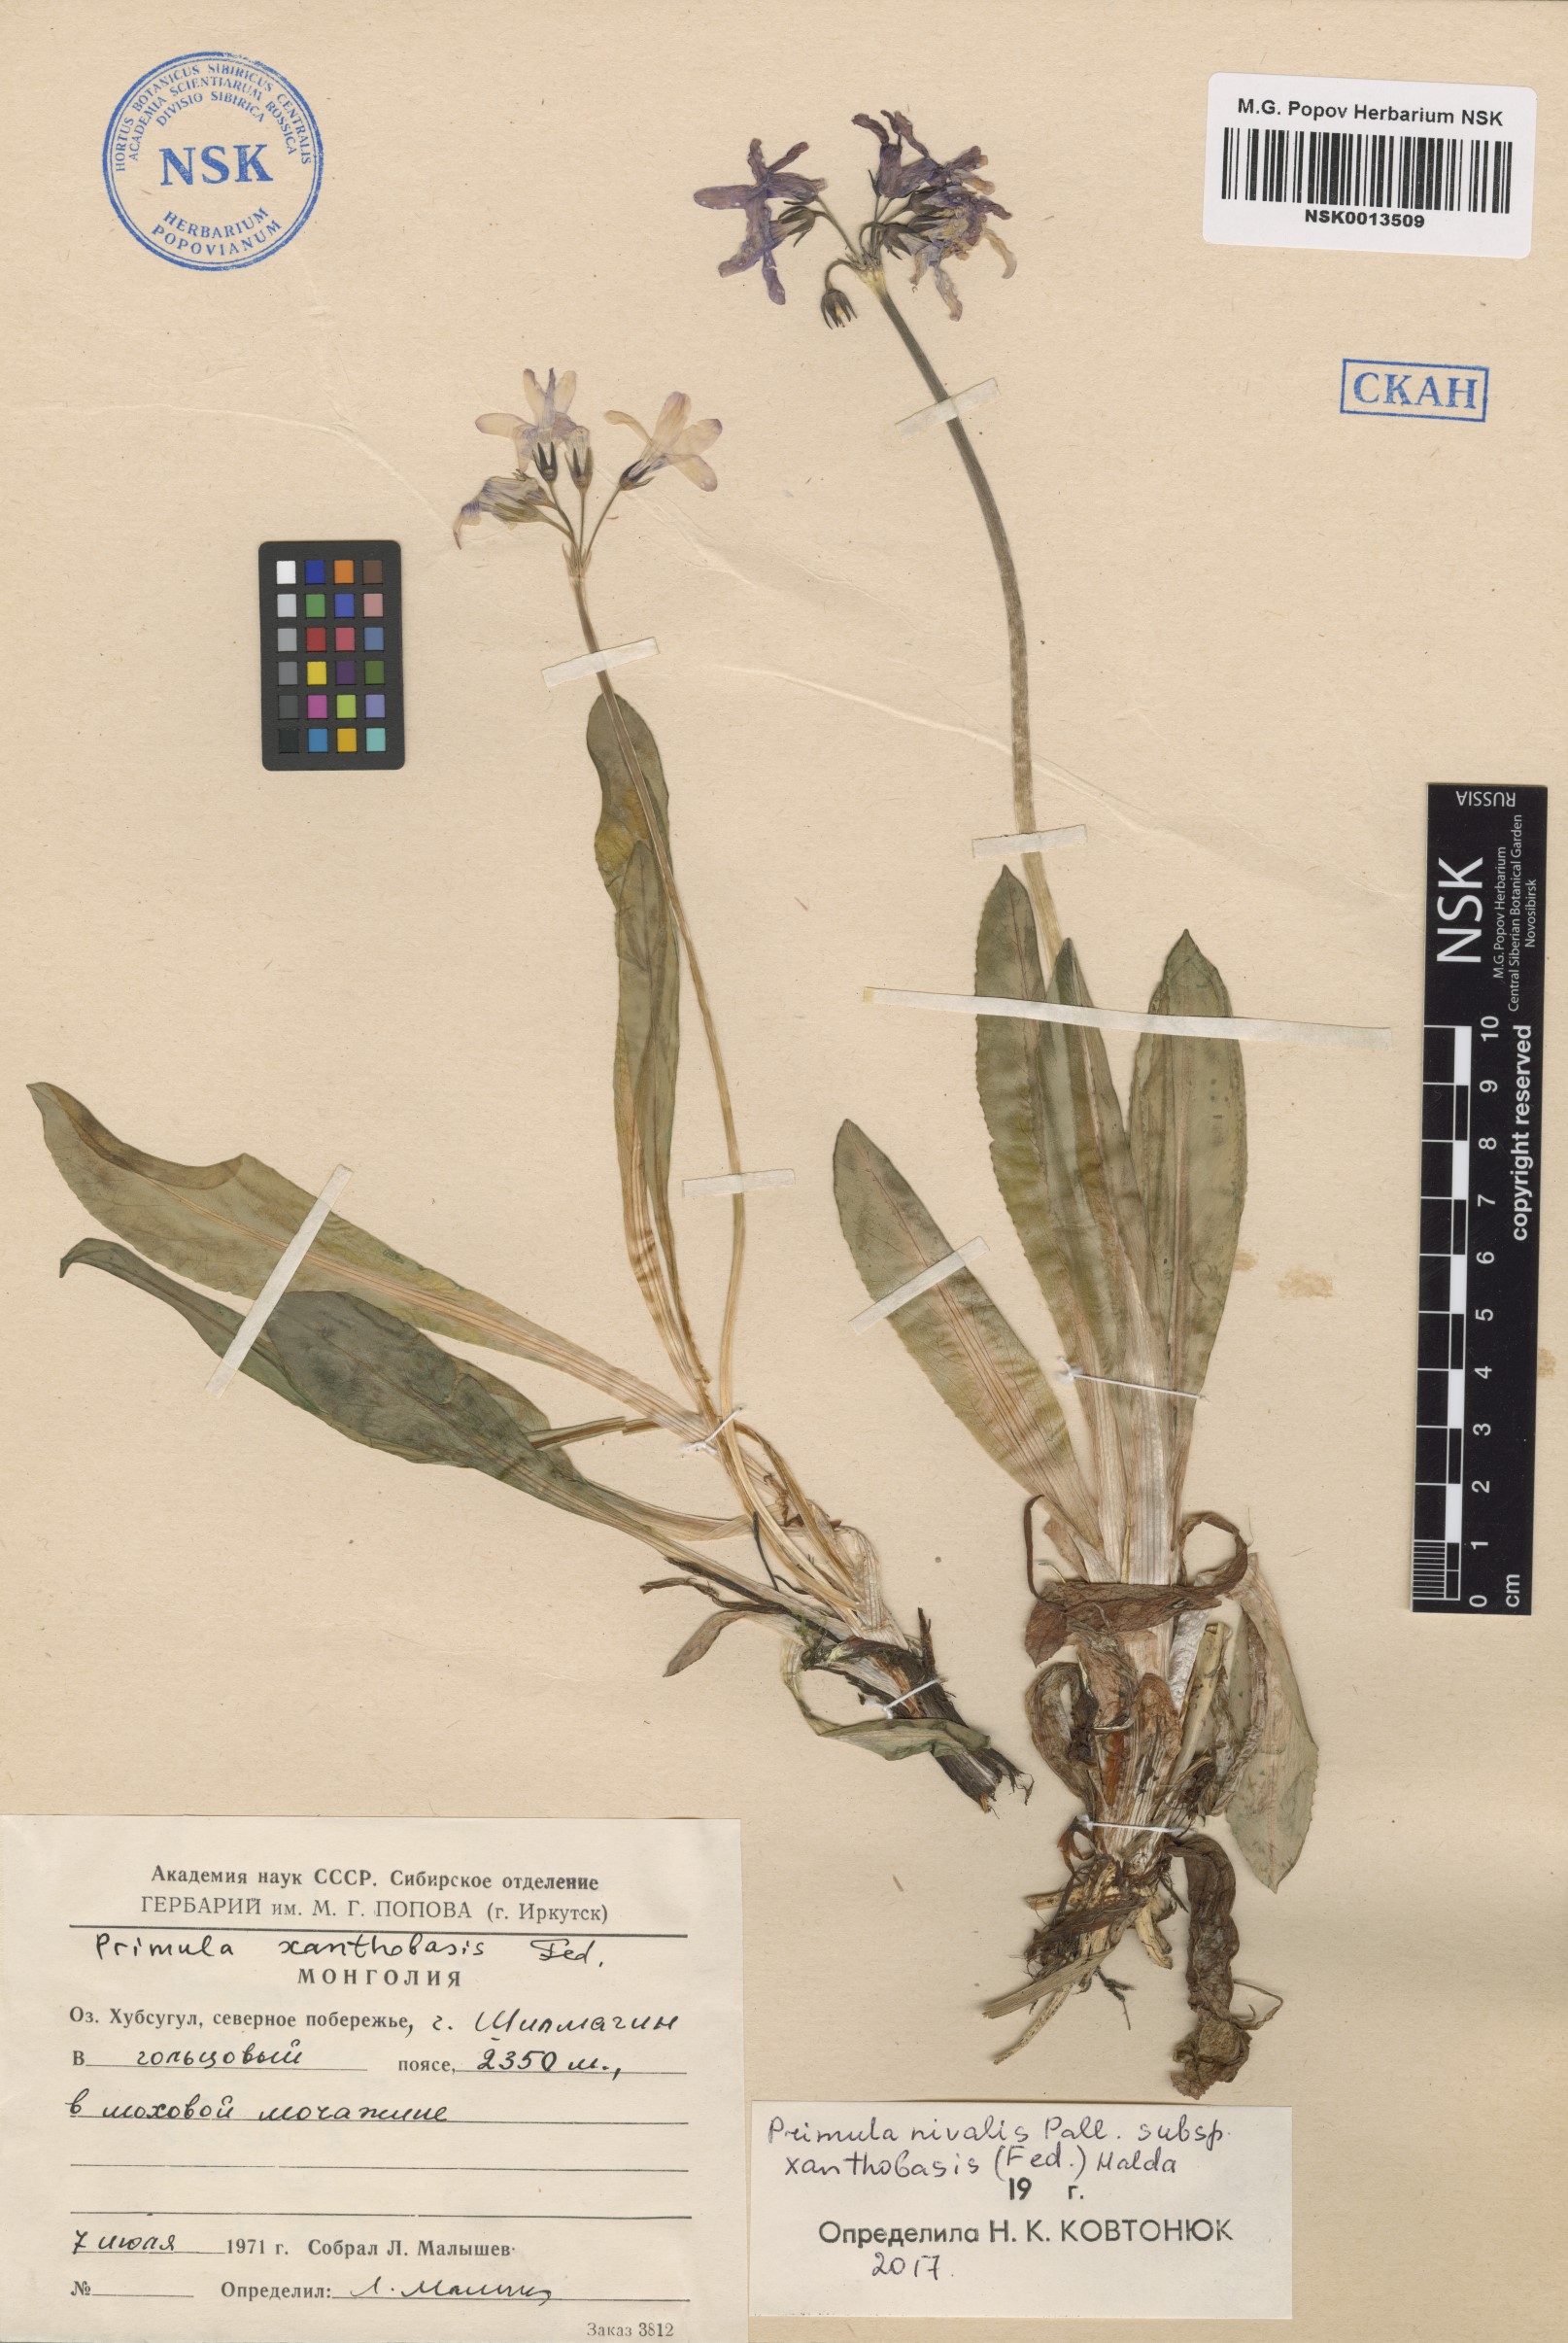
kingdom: Plantae
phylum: Tracheophyta
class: Magnoliopsida
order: Ericales
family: Primulaceae
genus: Primula
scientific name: Primula nivalis
